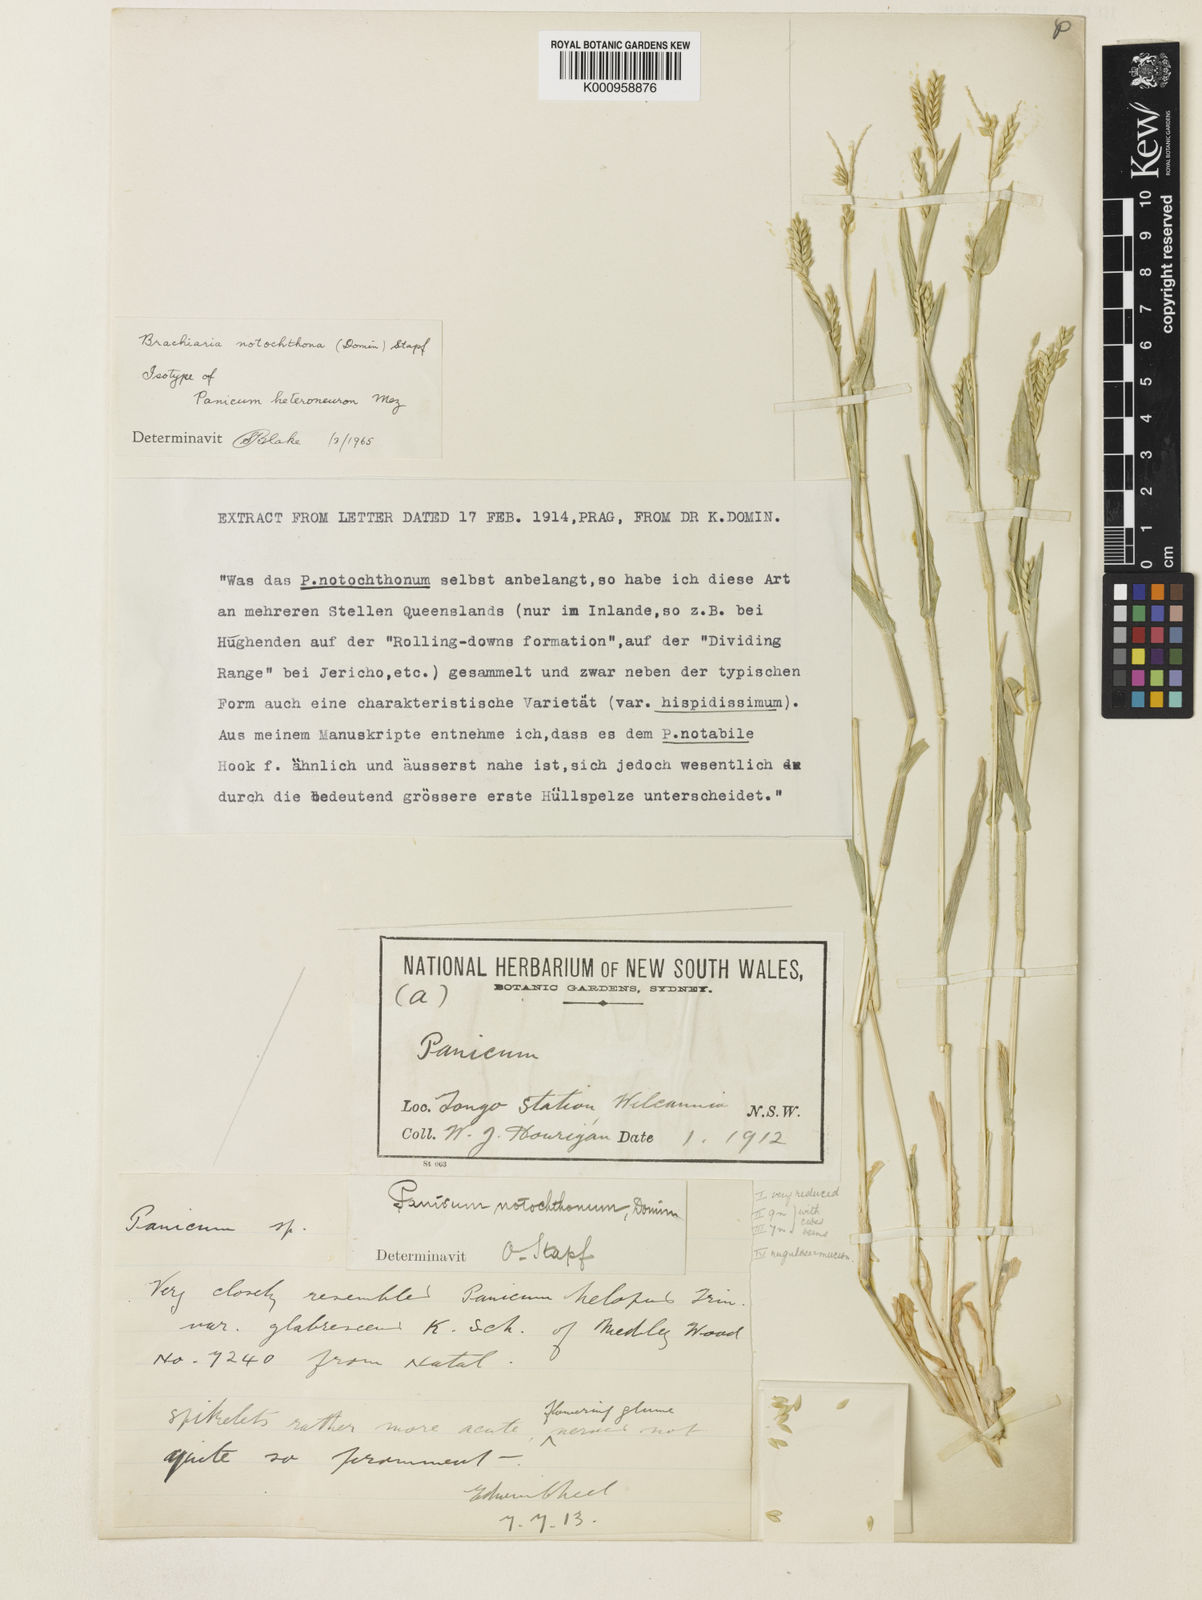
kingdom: Plantae
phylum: Tracheophyta
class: Liliopsida
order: Poales
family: Poaceae
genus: Urochloa
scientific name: Urochloa notochthona
